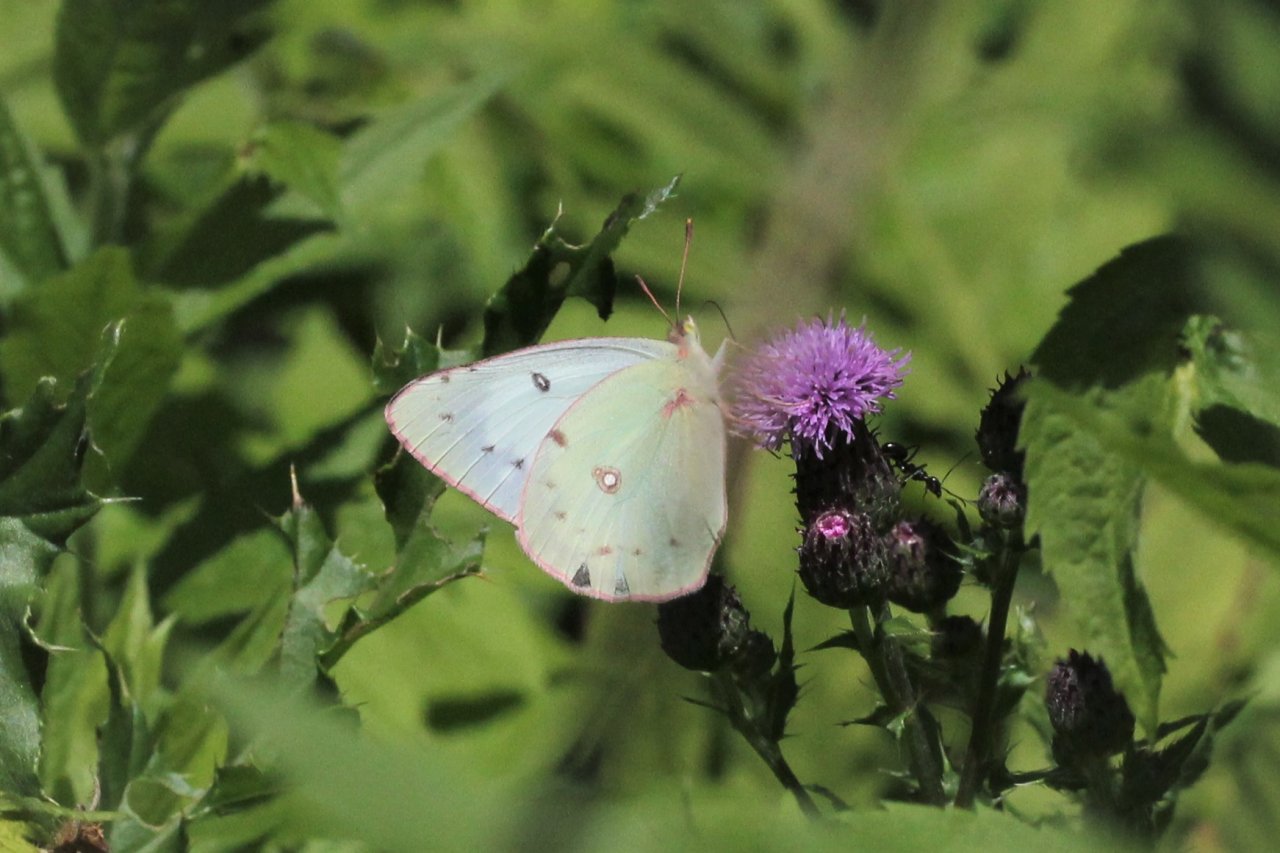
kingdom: Animalia
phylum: Arthropoda
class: Insecta
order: Lepidoptera
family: Pieridae
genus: Colias
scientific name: Colias philodice
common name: Clouded Sulphur
